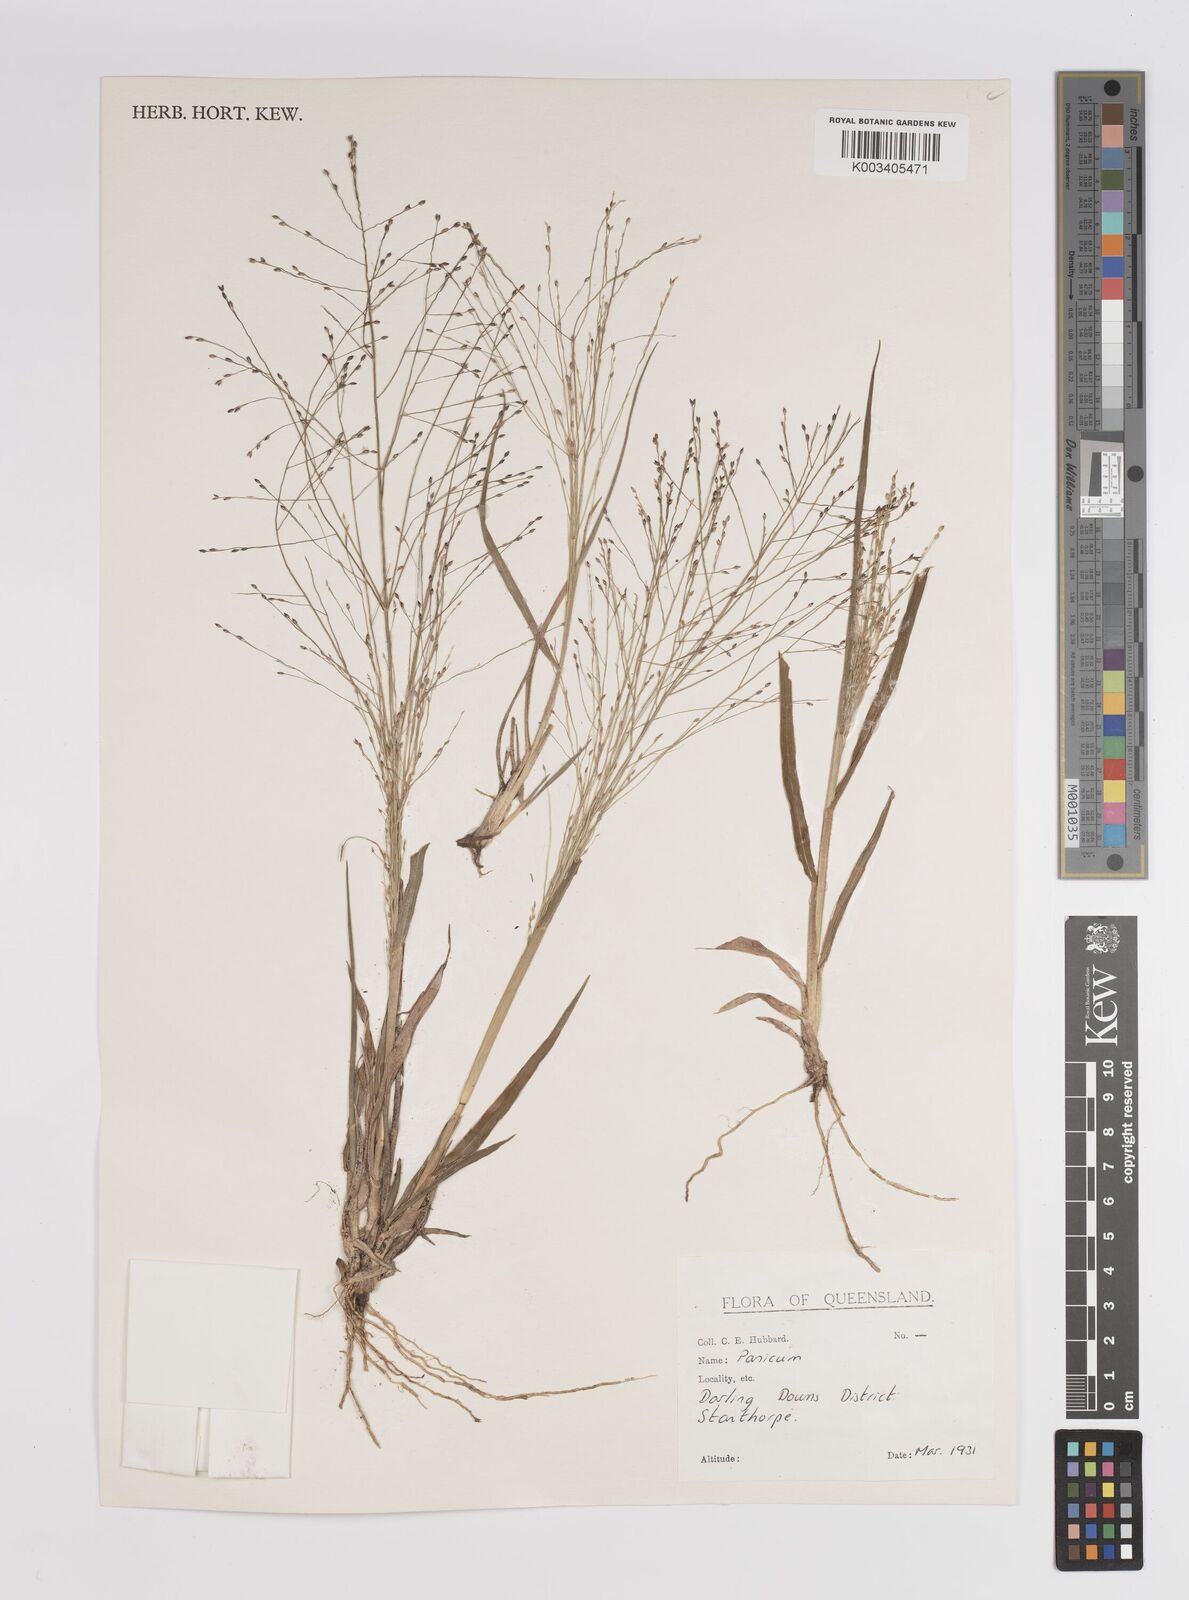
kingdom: Plantae
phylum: Tracheophyta
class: Liliopsida
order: Poales
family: Poaceae
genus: Panicum
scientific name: Panicum
